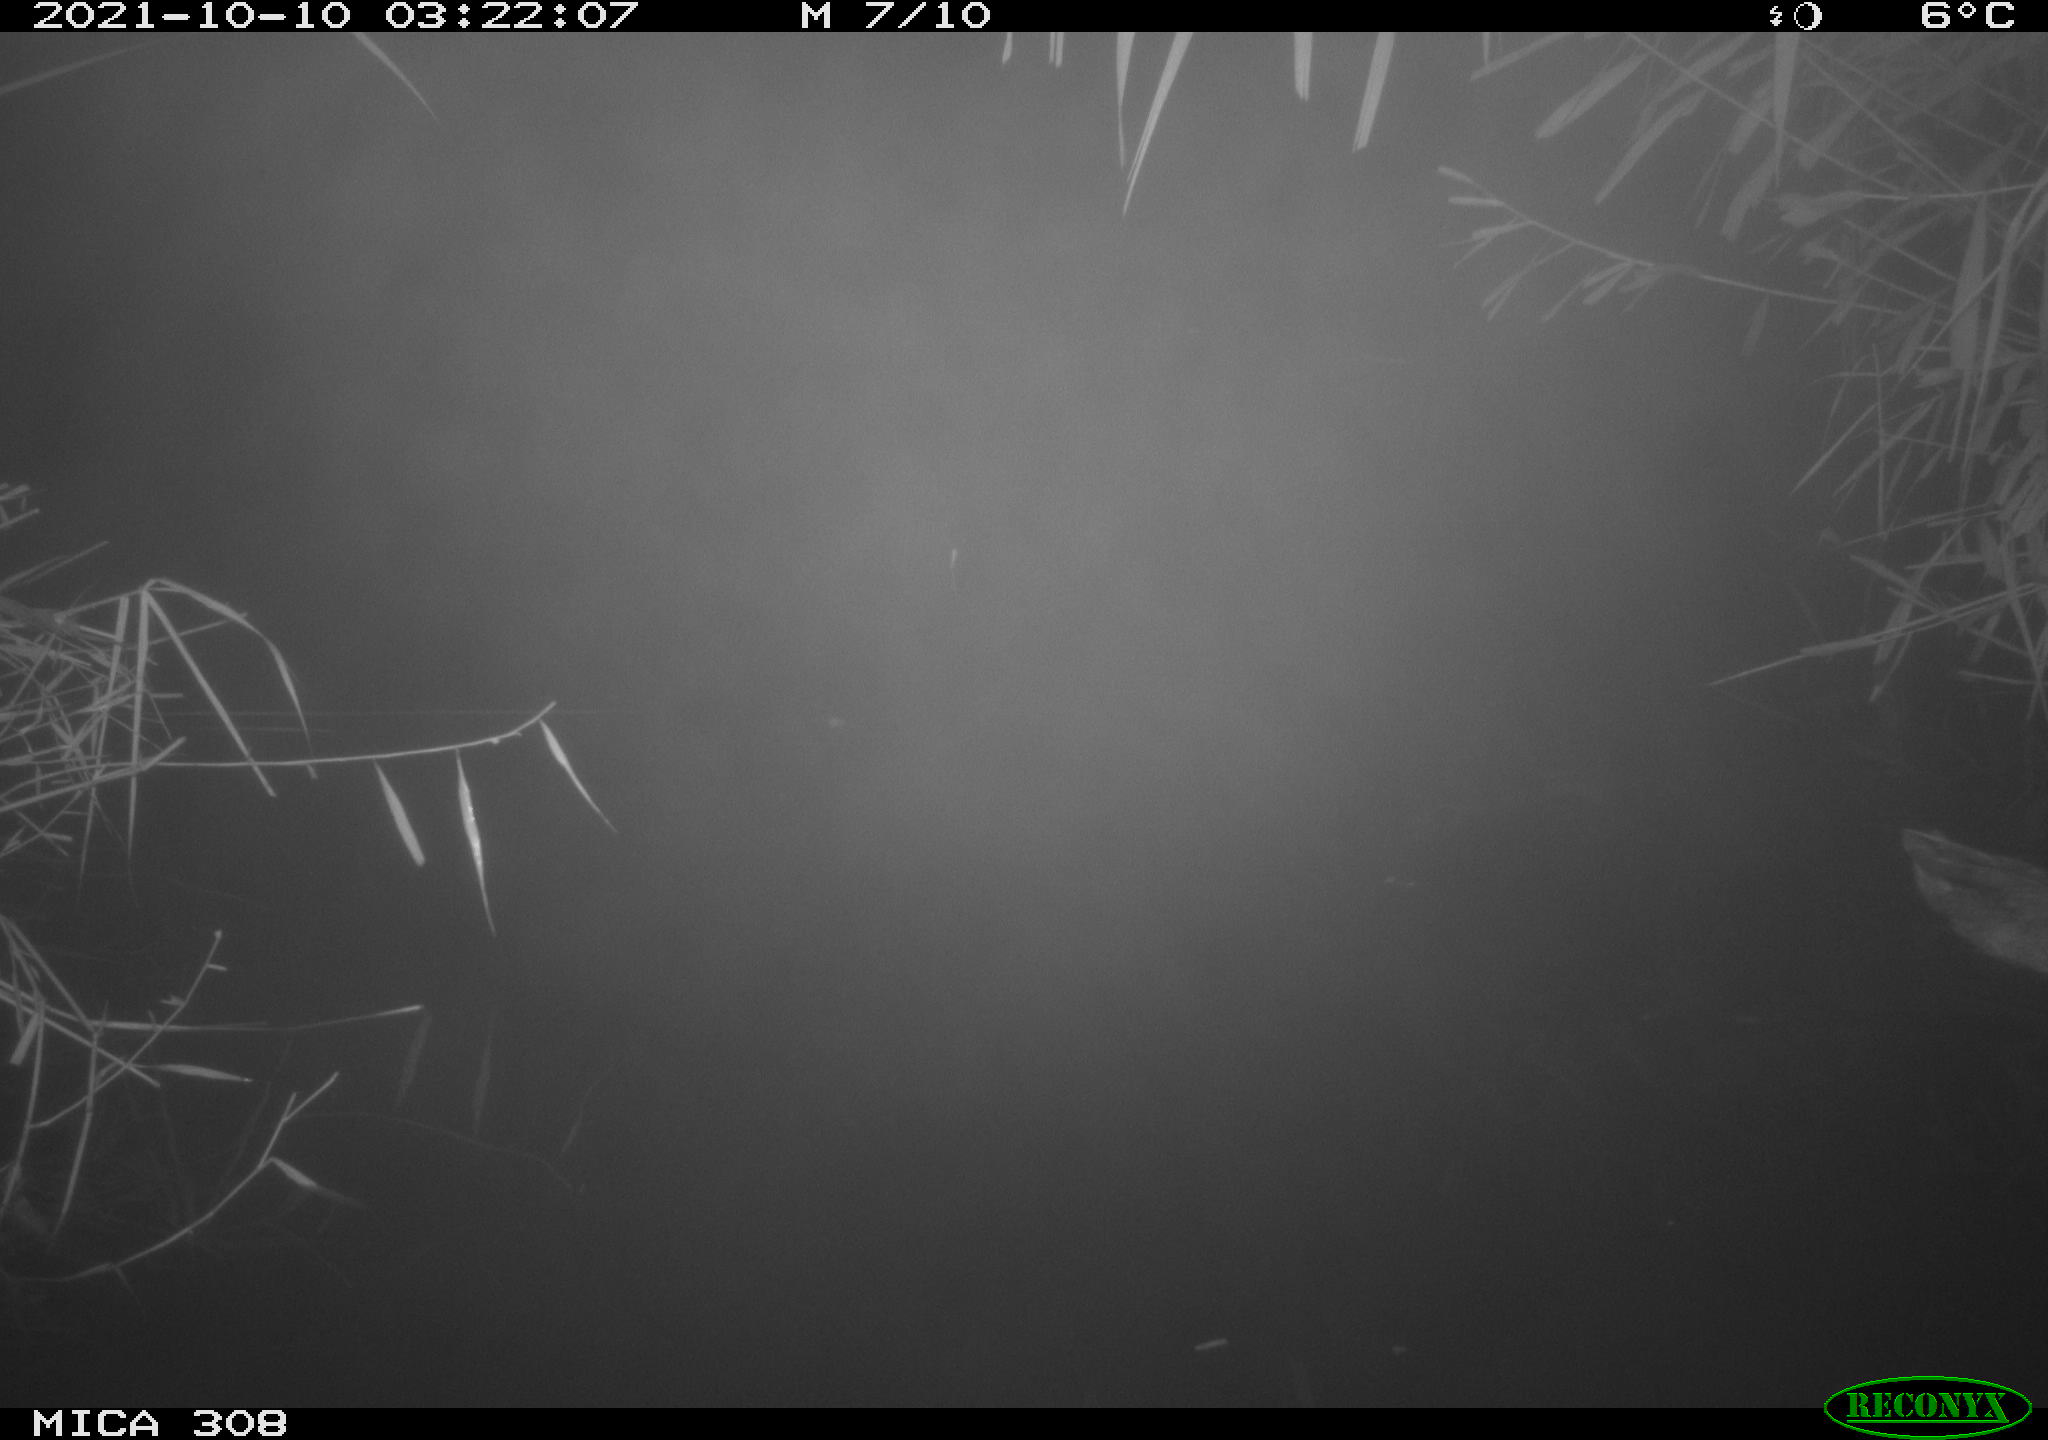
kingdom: Animalia
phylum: Chordata
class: Aves
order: Anseriformes
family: Anatidae
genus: Spatula
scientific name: Spatula clypeata
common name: Northern shoveler
